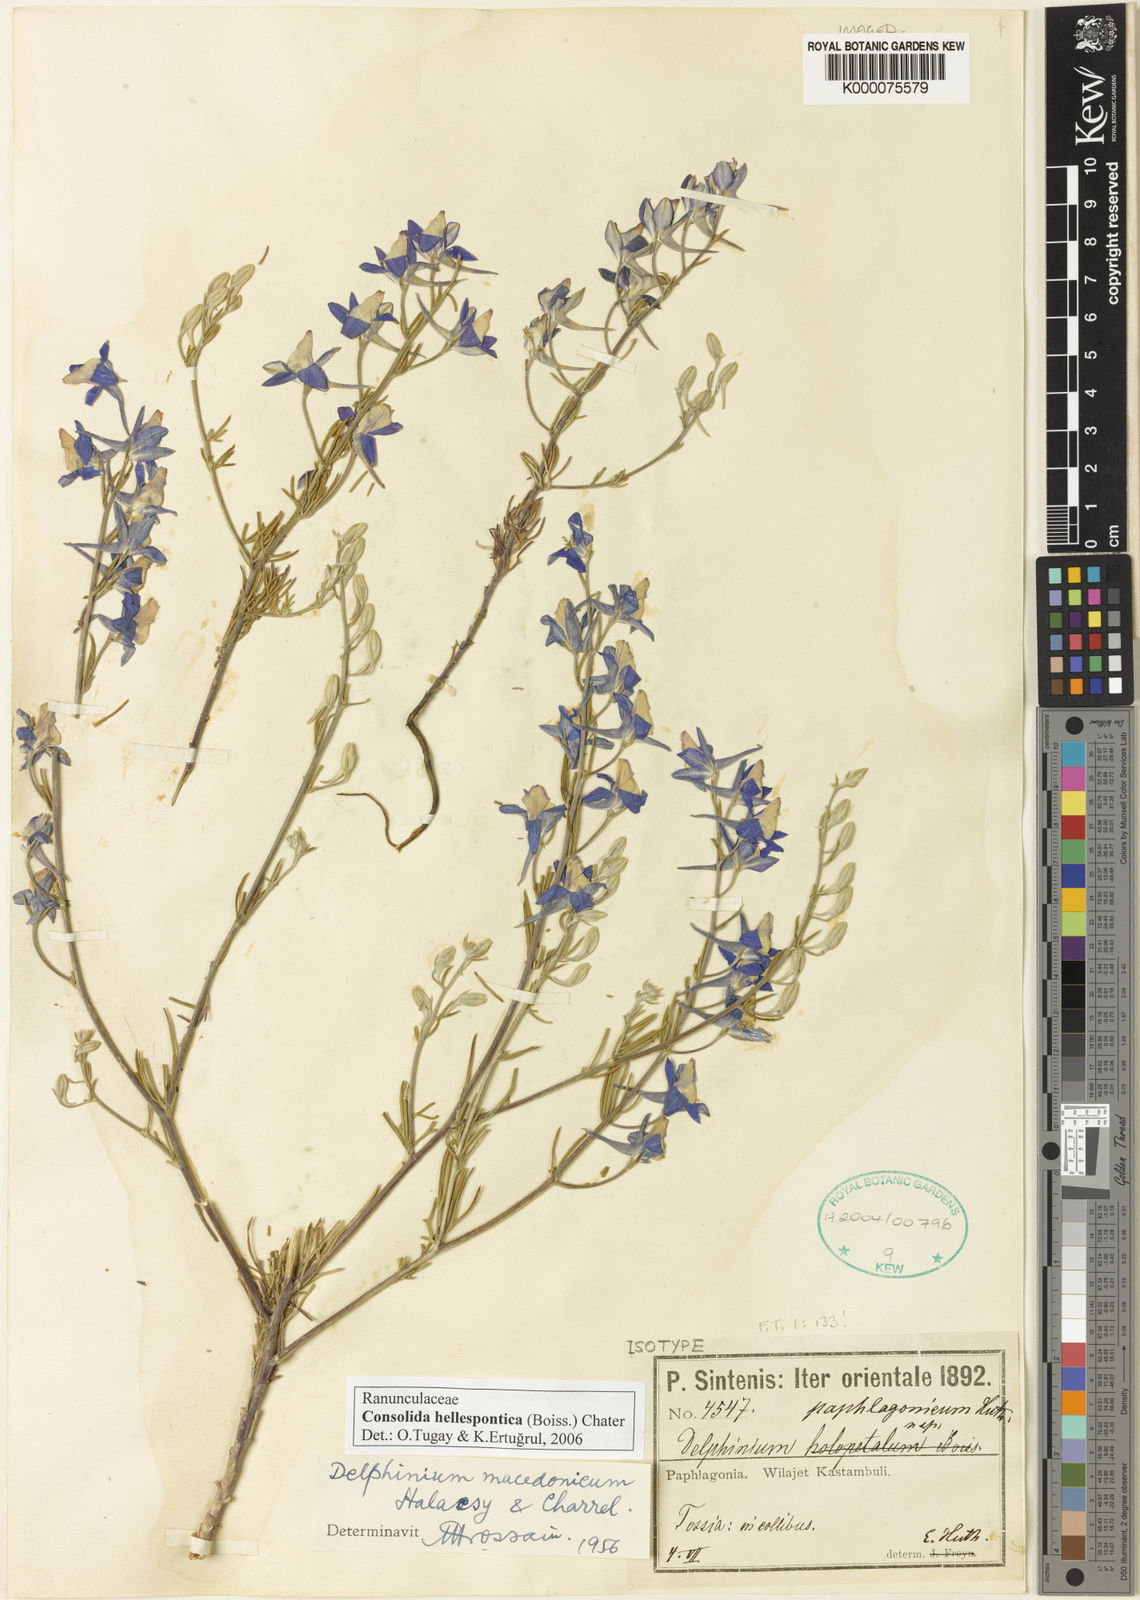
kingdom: Plantae
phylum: Tracheophyta
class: Magnoliopsida
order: Ranunculales
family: Ranunculaceae
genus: Delphinium
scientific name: Delphinium hellesponticum
